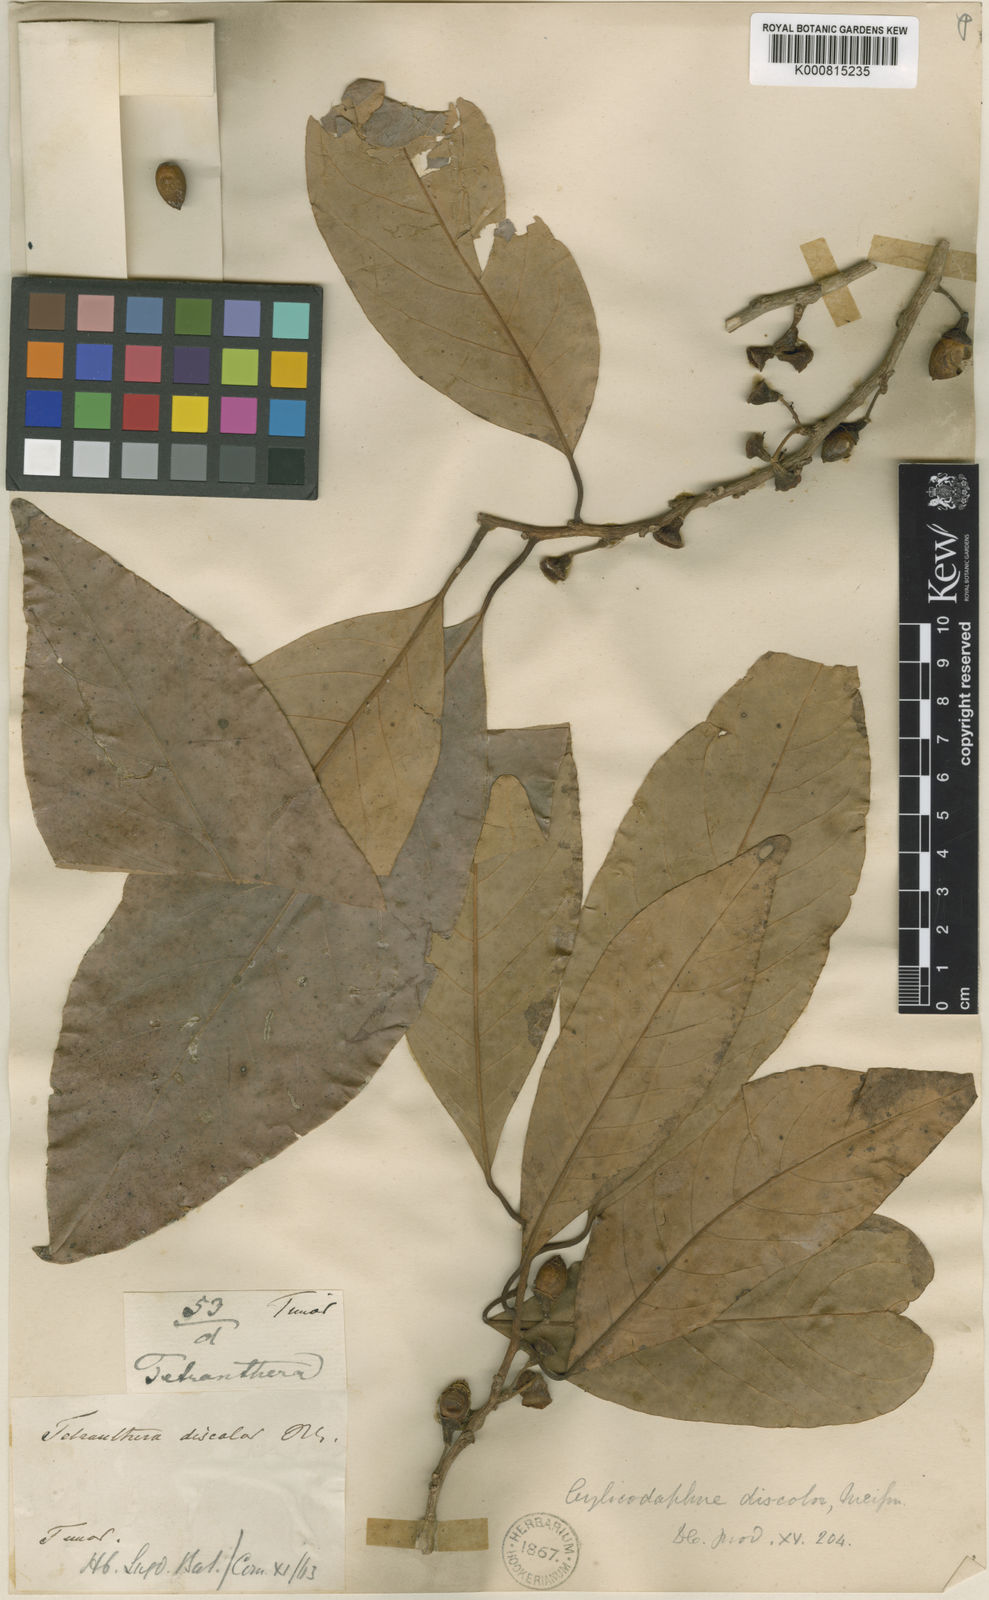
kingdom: Plantae
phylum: Tracheophyta
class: Magnoliopsida
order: Laurales
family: Lauraceae
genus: Litsea
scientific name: Litsea discolor
